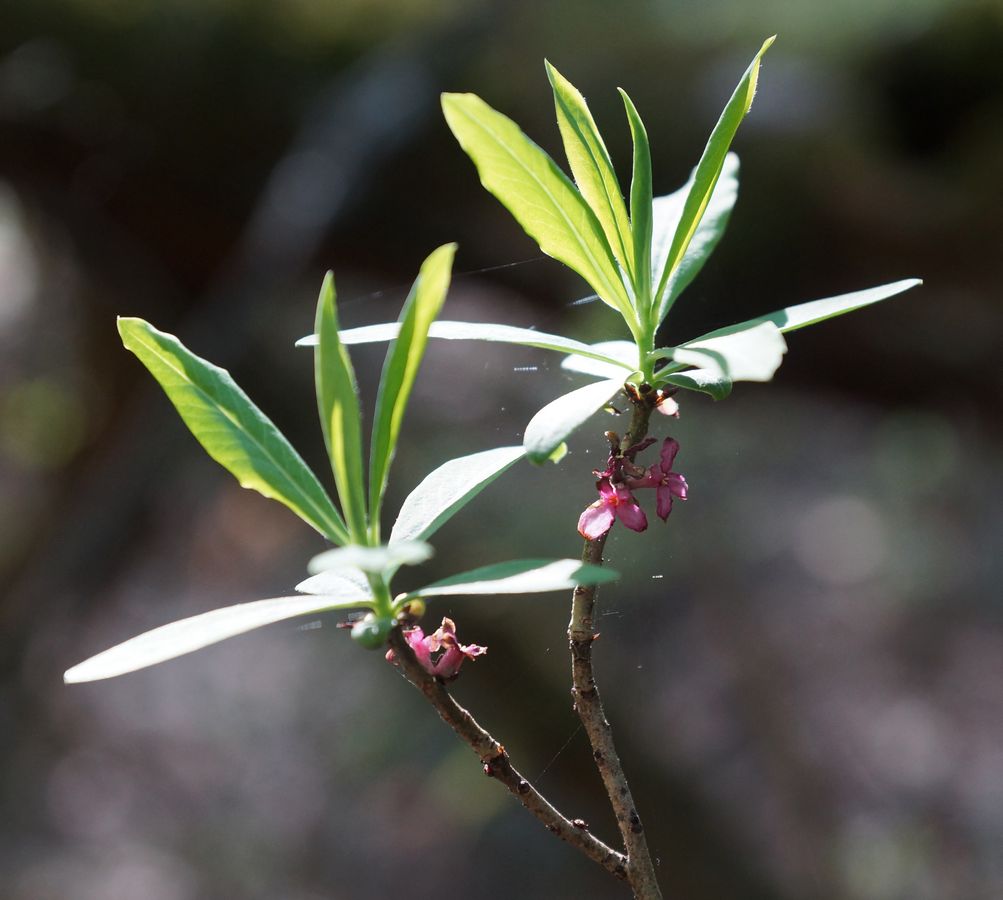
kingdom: Plantae
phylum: Tracheophyta
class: Magnoliopsida
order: Malvales
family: Thymelaeaceae
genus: Daphne
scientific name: Daphne mezereum
